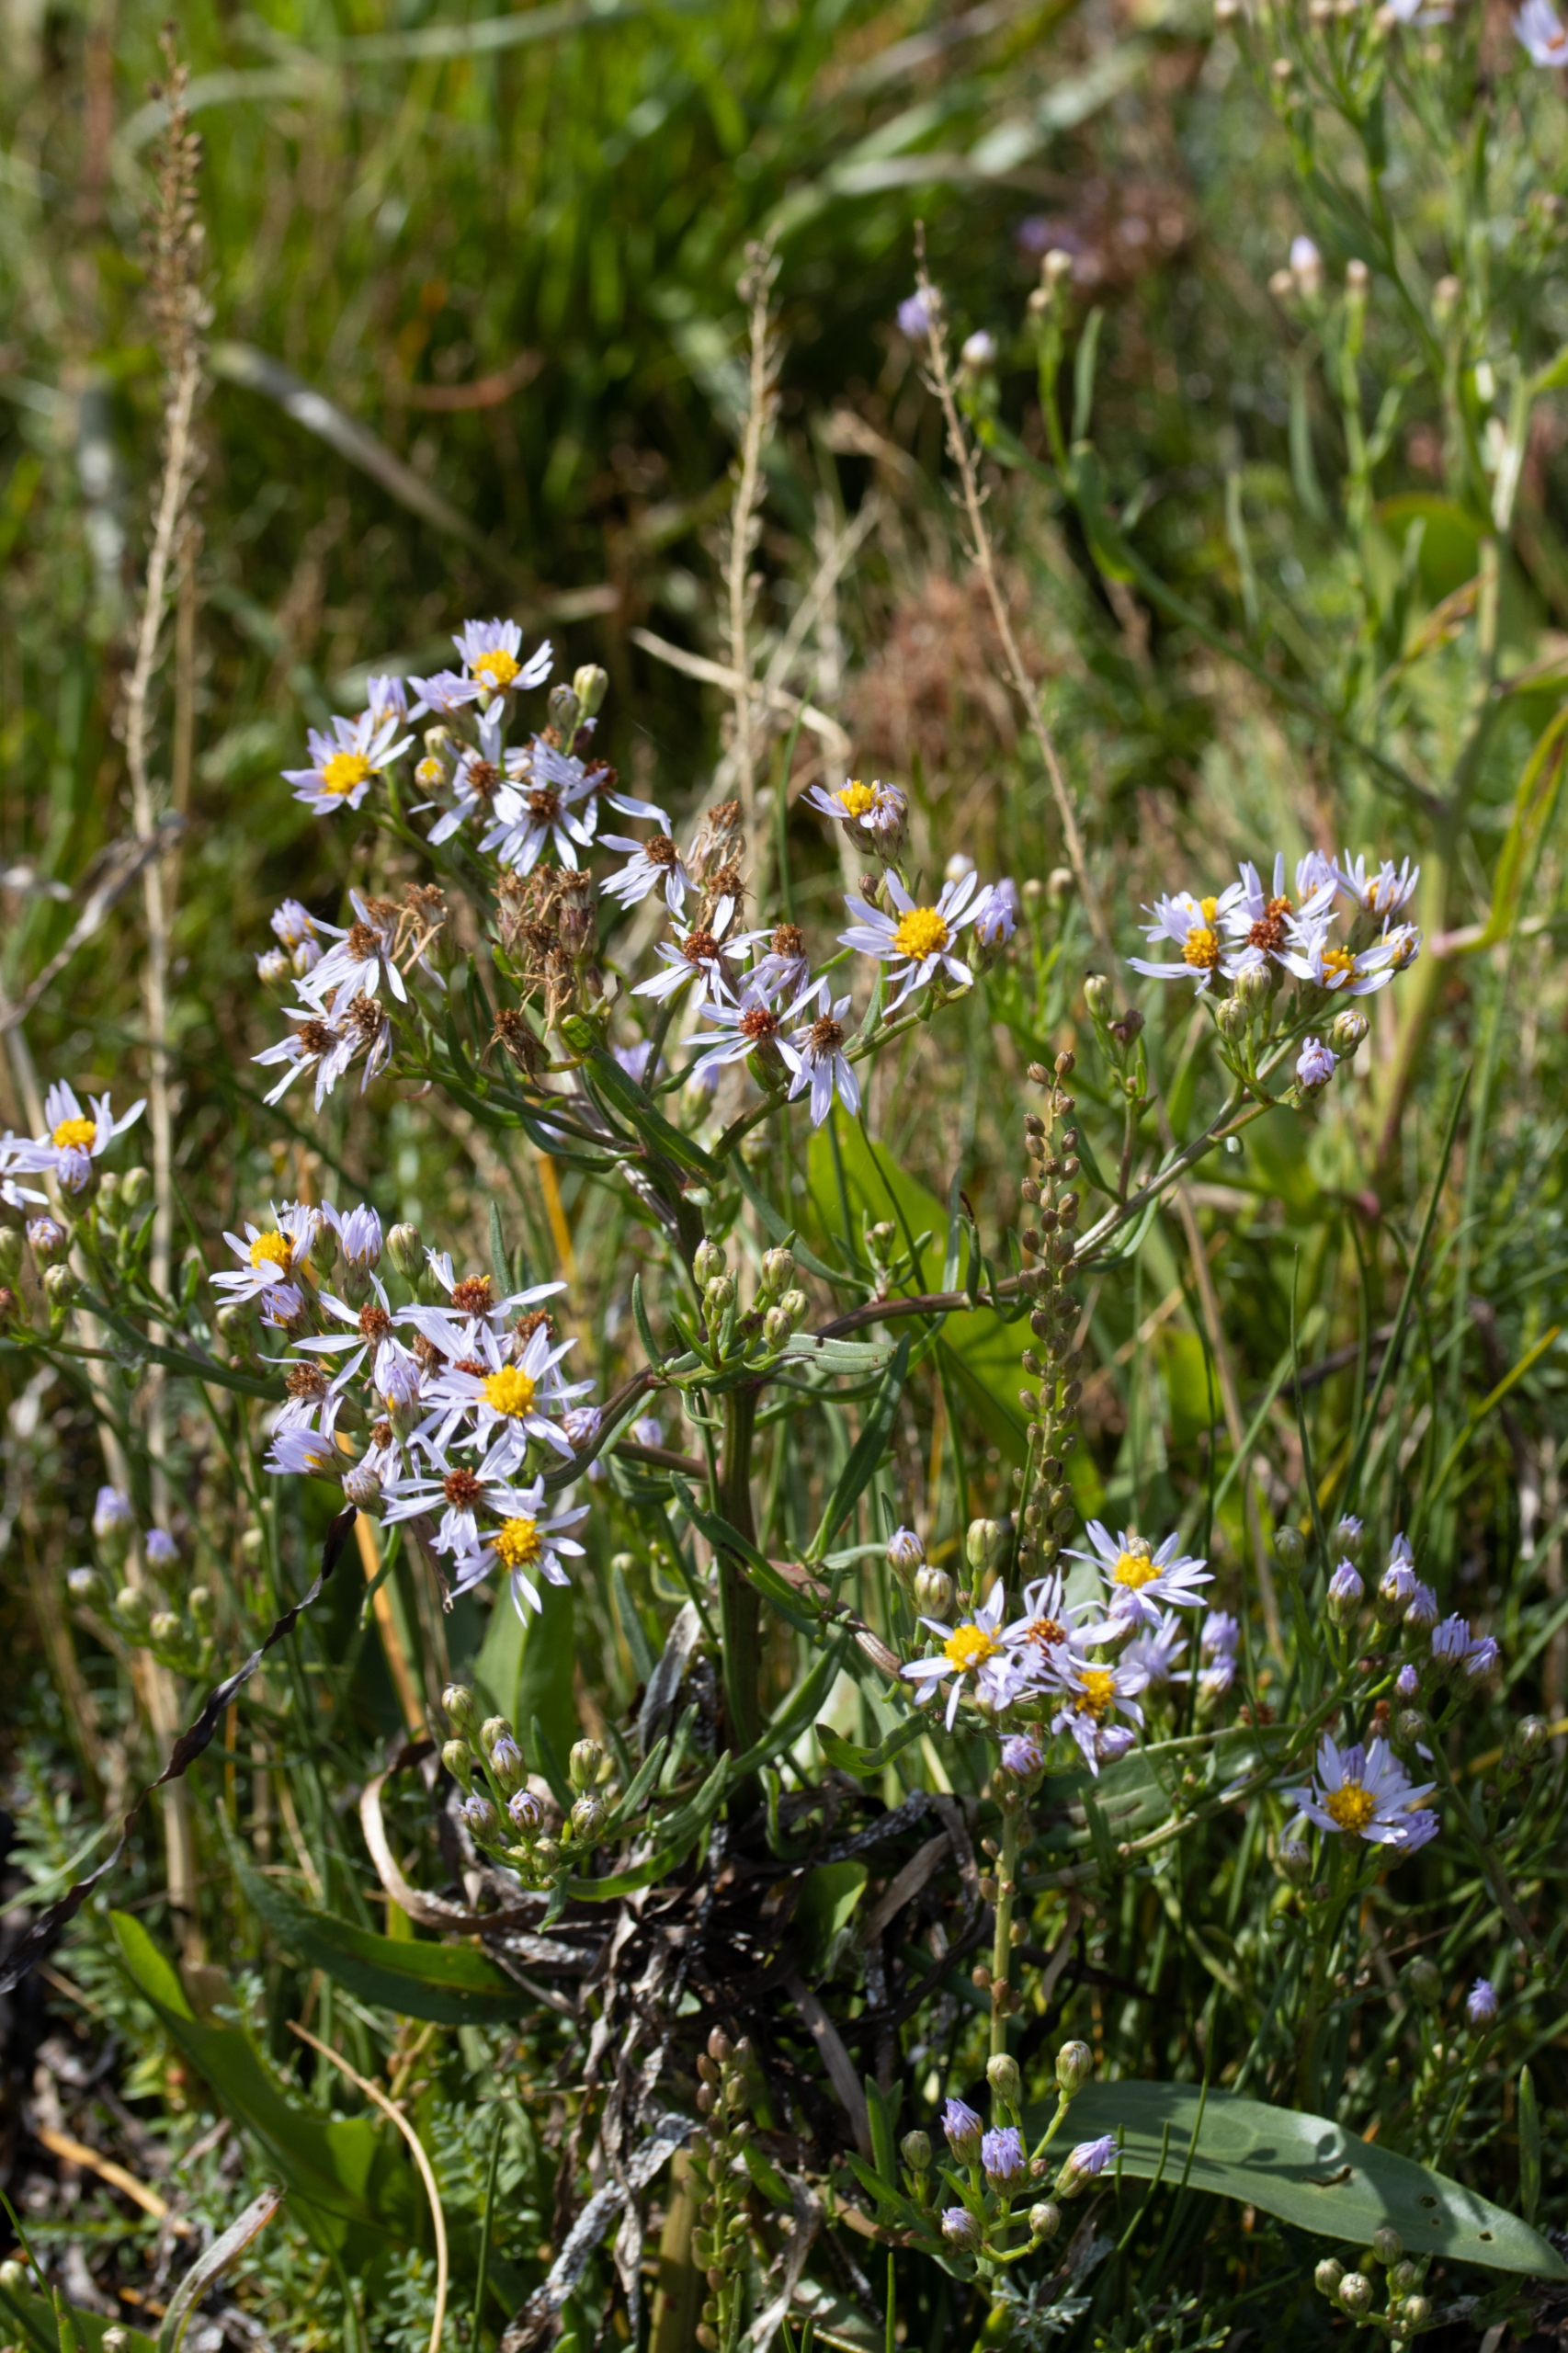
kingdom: Plantae
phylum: Tracheophyta
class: Magnoliopsida
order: Asterales
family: Asteraceae
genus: Tripolium
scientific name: Tripolium pannonicum
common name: Strandasters
